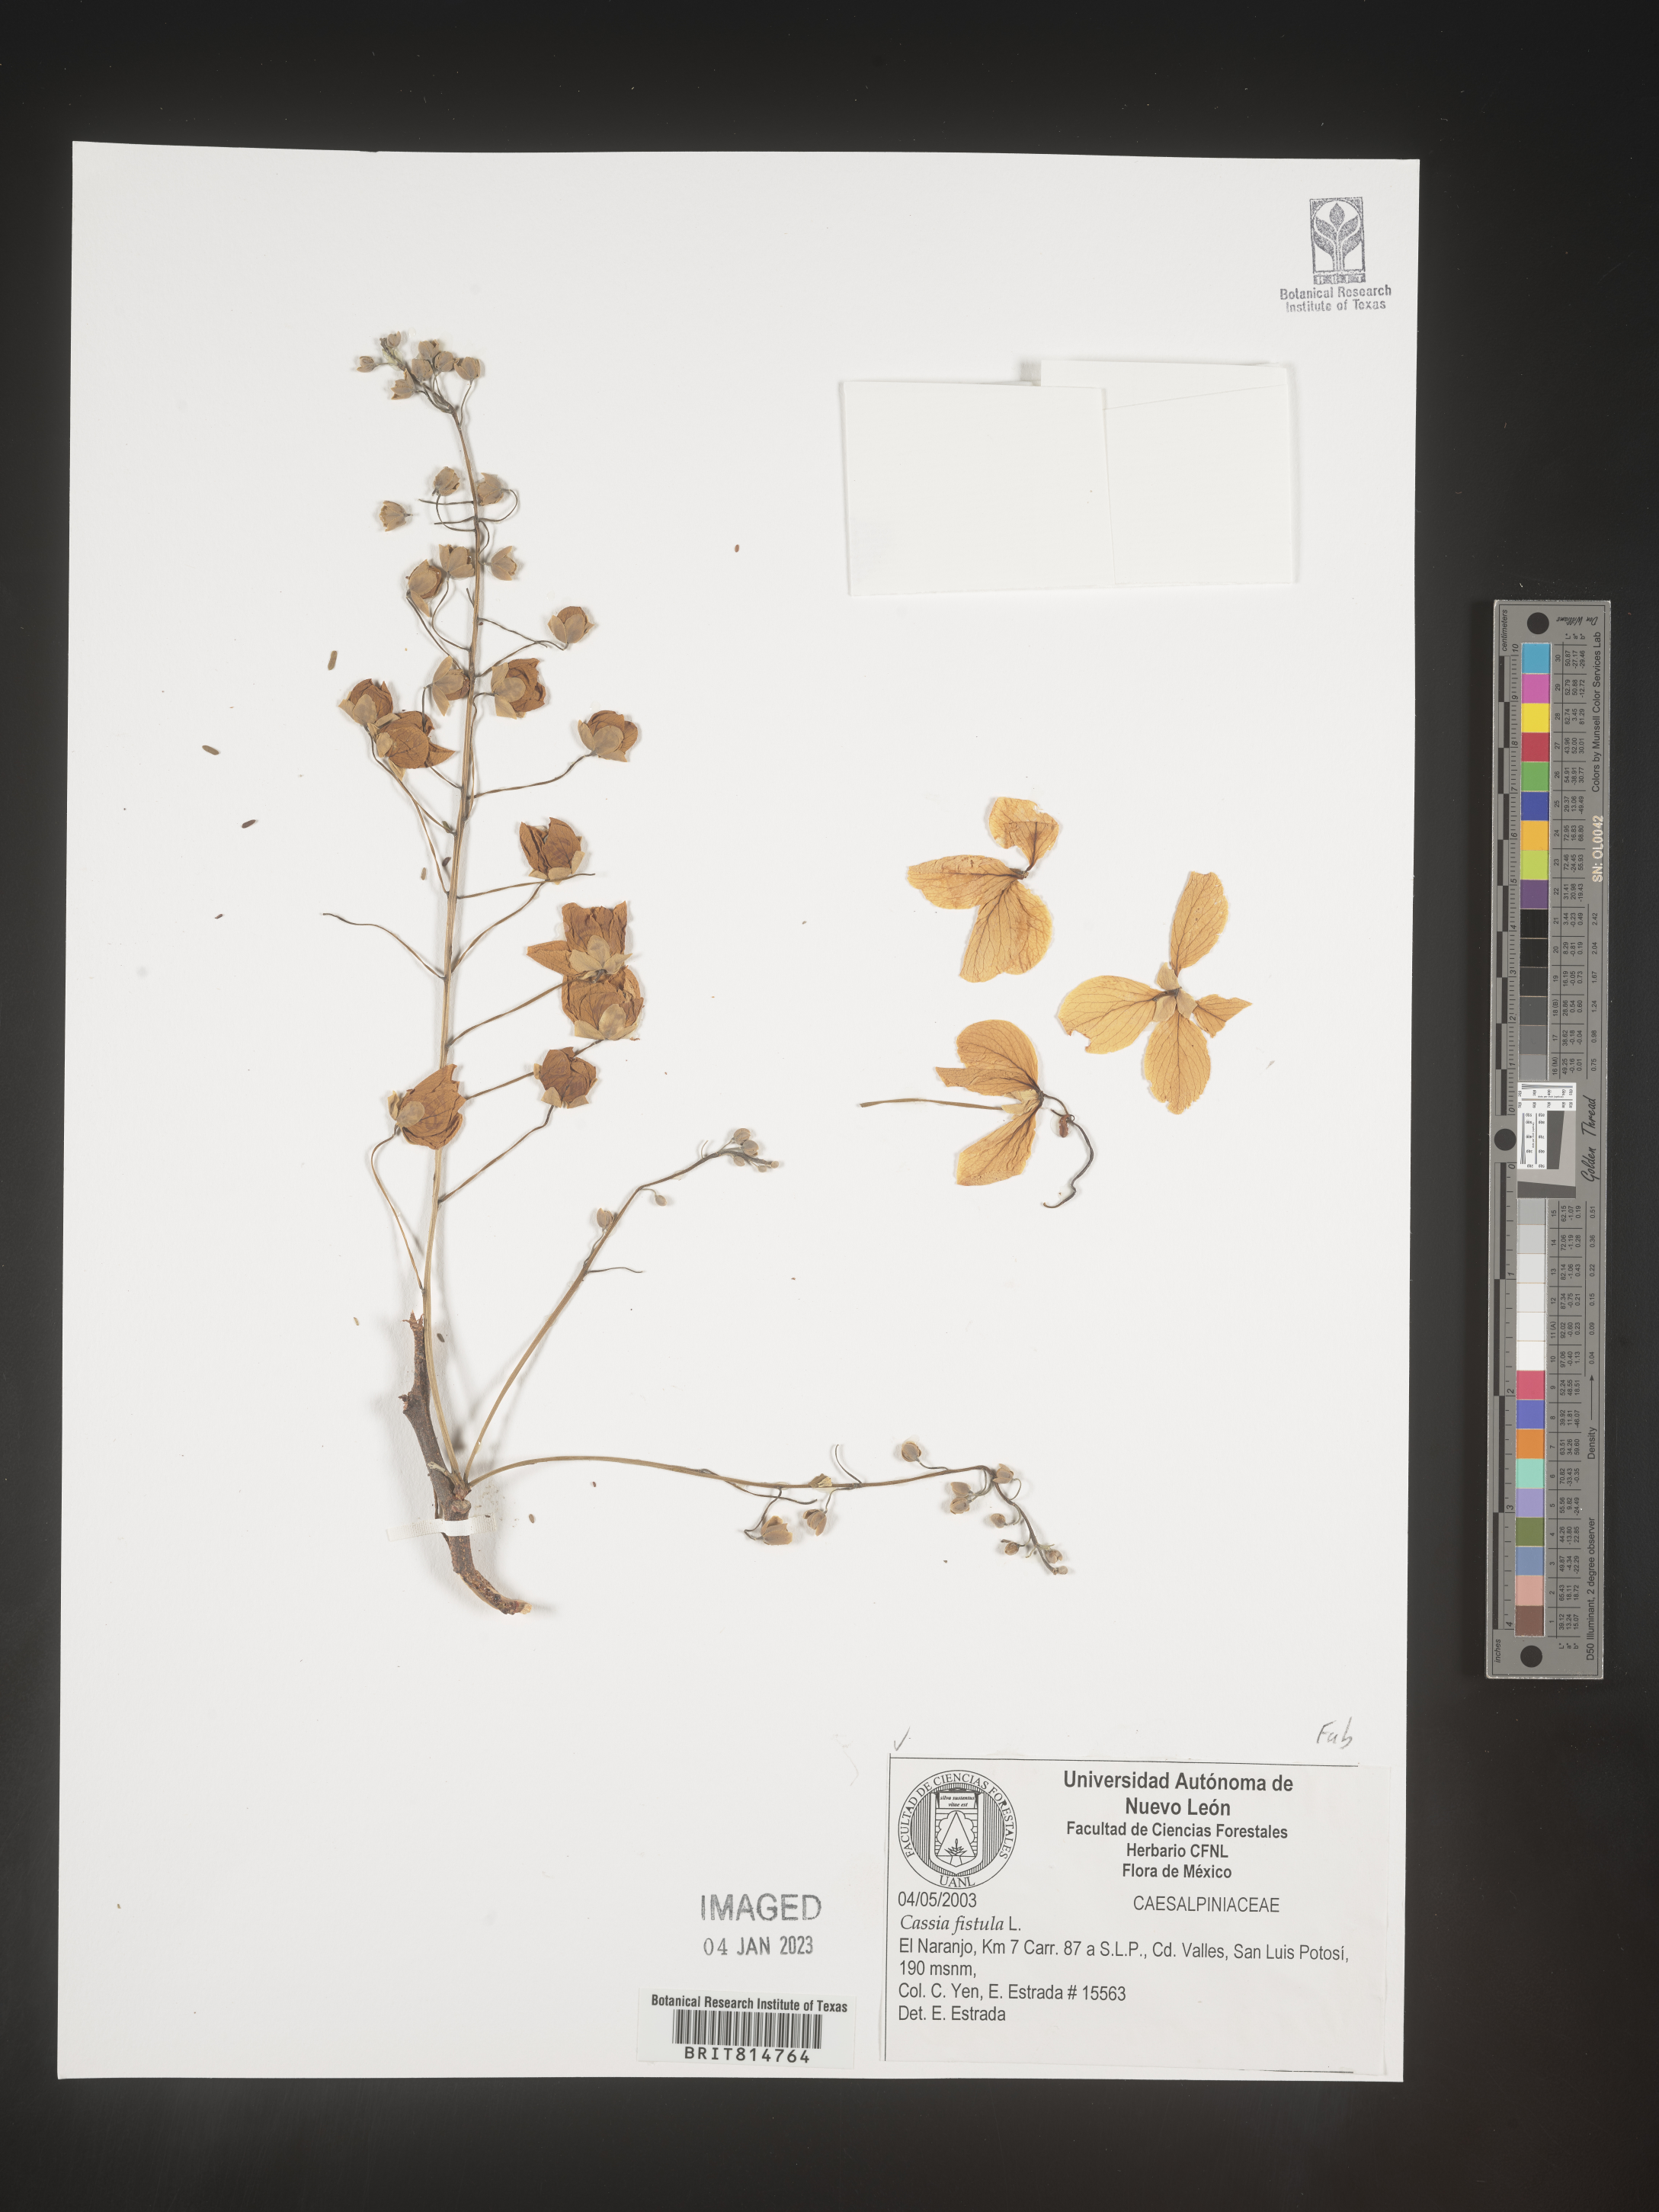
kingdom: Plantae
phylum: Tracheophyta
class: Magnoliopsida
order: Fabales
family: Fabaceae
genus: Calliandra
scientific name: Calliandra
